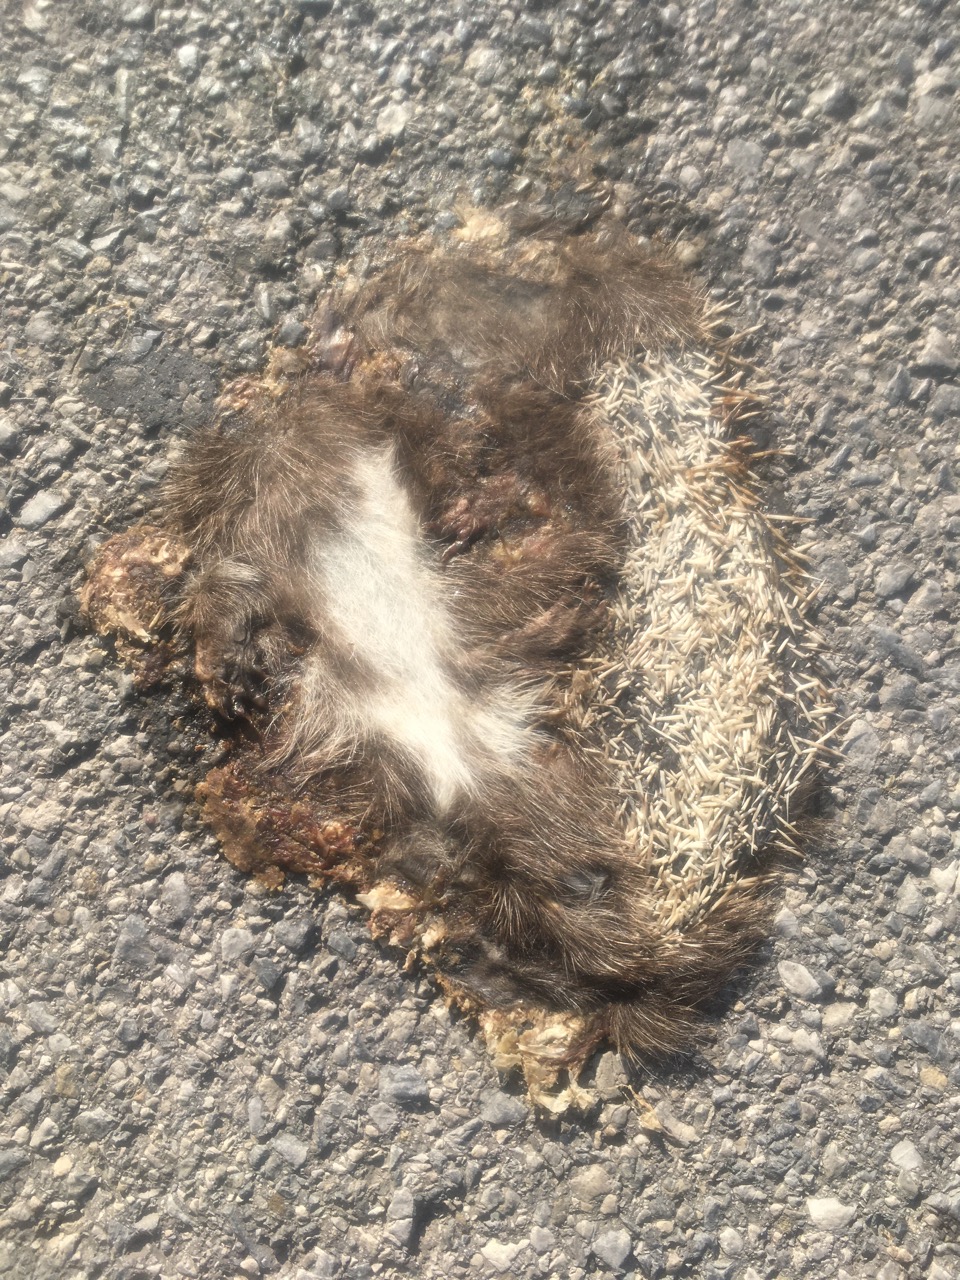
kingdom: Animalia
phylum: Chordata
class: Mammalia
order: Erinaceomorpha
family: Erinaceidae
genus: Erinaceus
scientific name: Erinaceus
